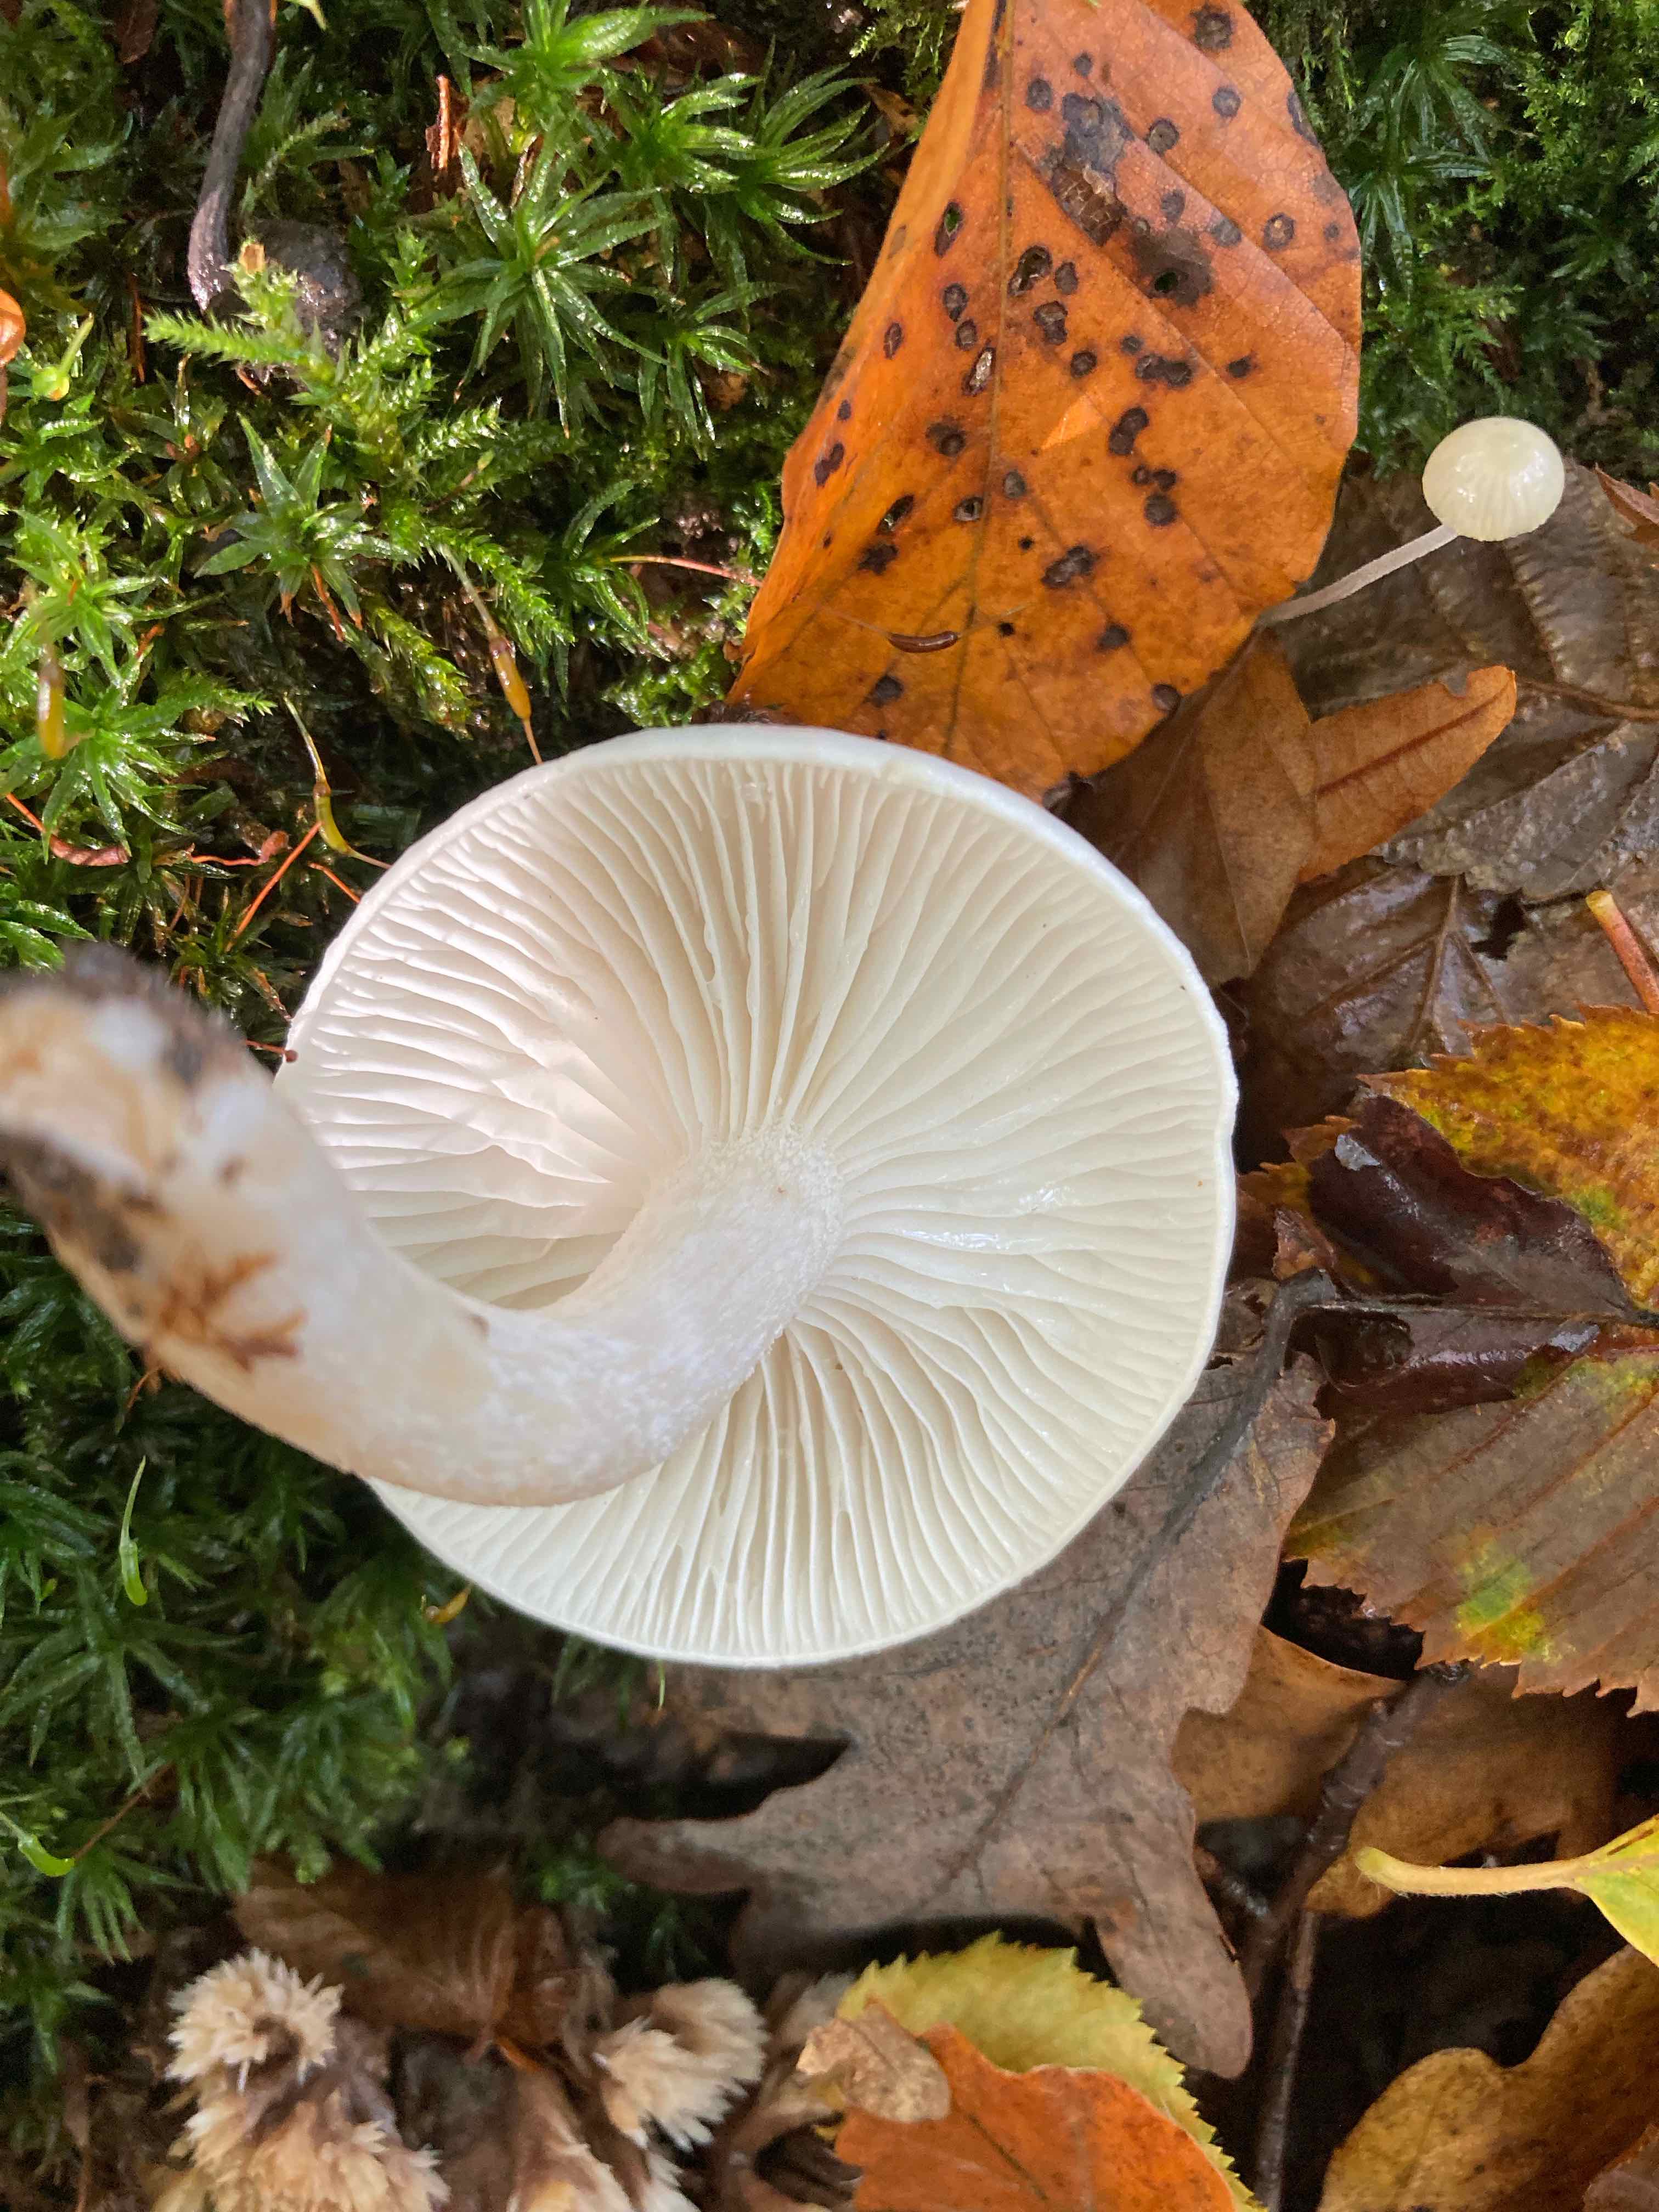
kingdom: Fungi
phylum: Basidiomycota
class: Agaricomycetes
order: Agaricales
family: Hygrophoraceae
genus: Hygrophorus
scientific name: Hygrophorus
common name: sneglehat
